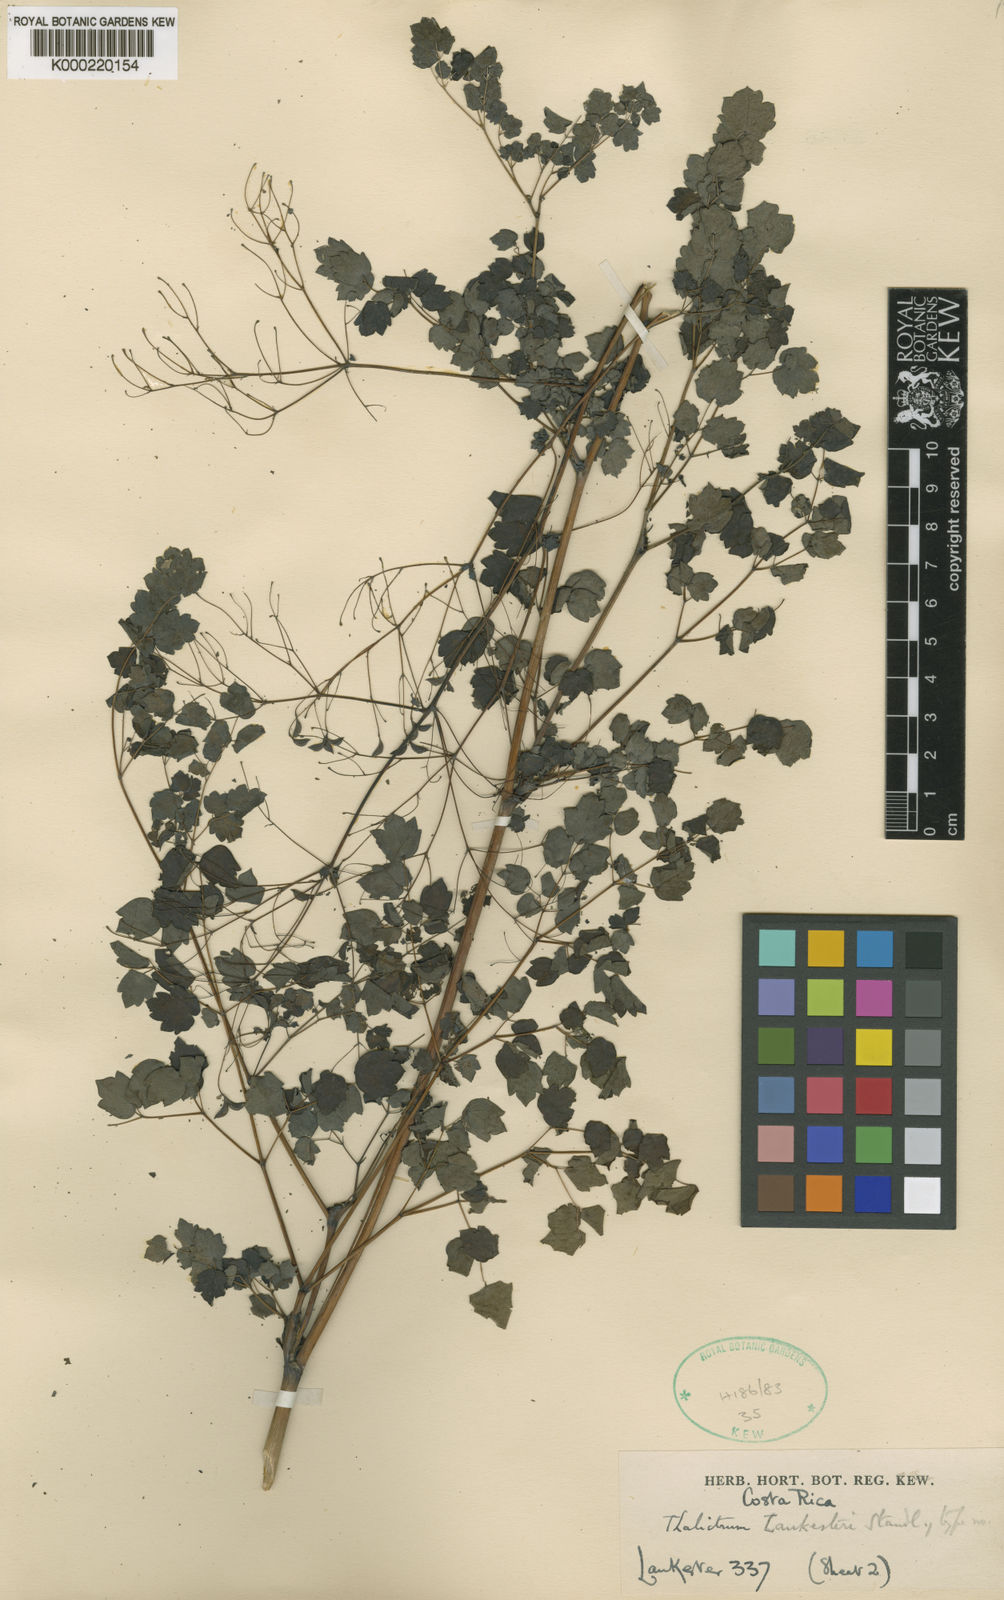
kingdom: Plantae
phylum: Tracheophyta
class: Magnoliopsida
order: Ranunculales
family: Ranunculaceae
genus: Thalictrum
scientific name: Thalictrum lankesteri
